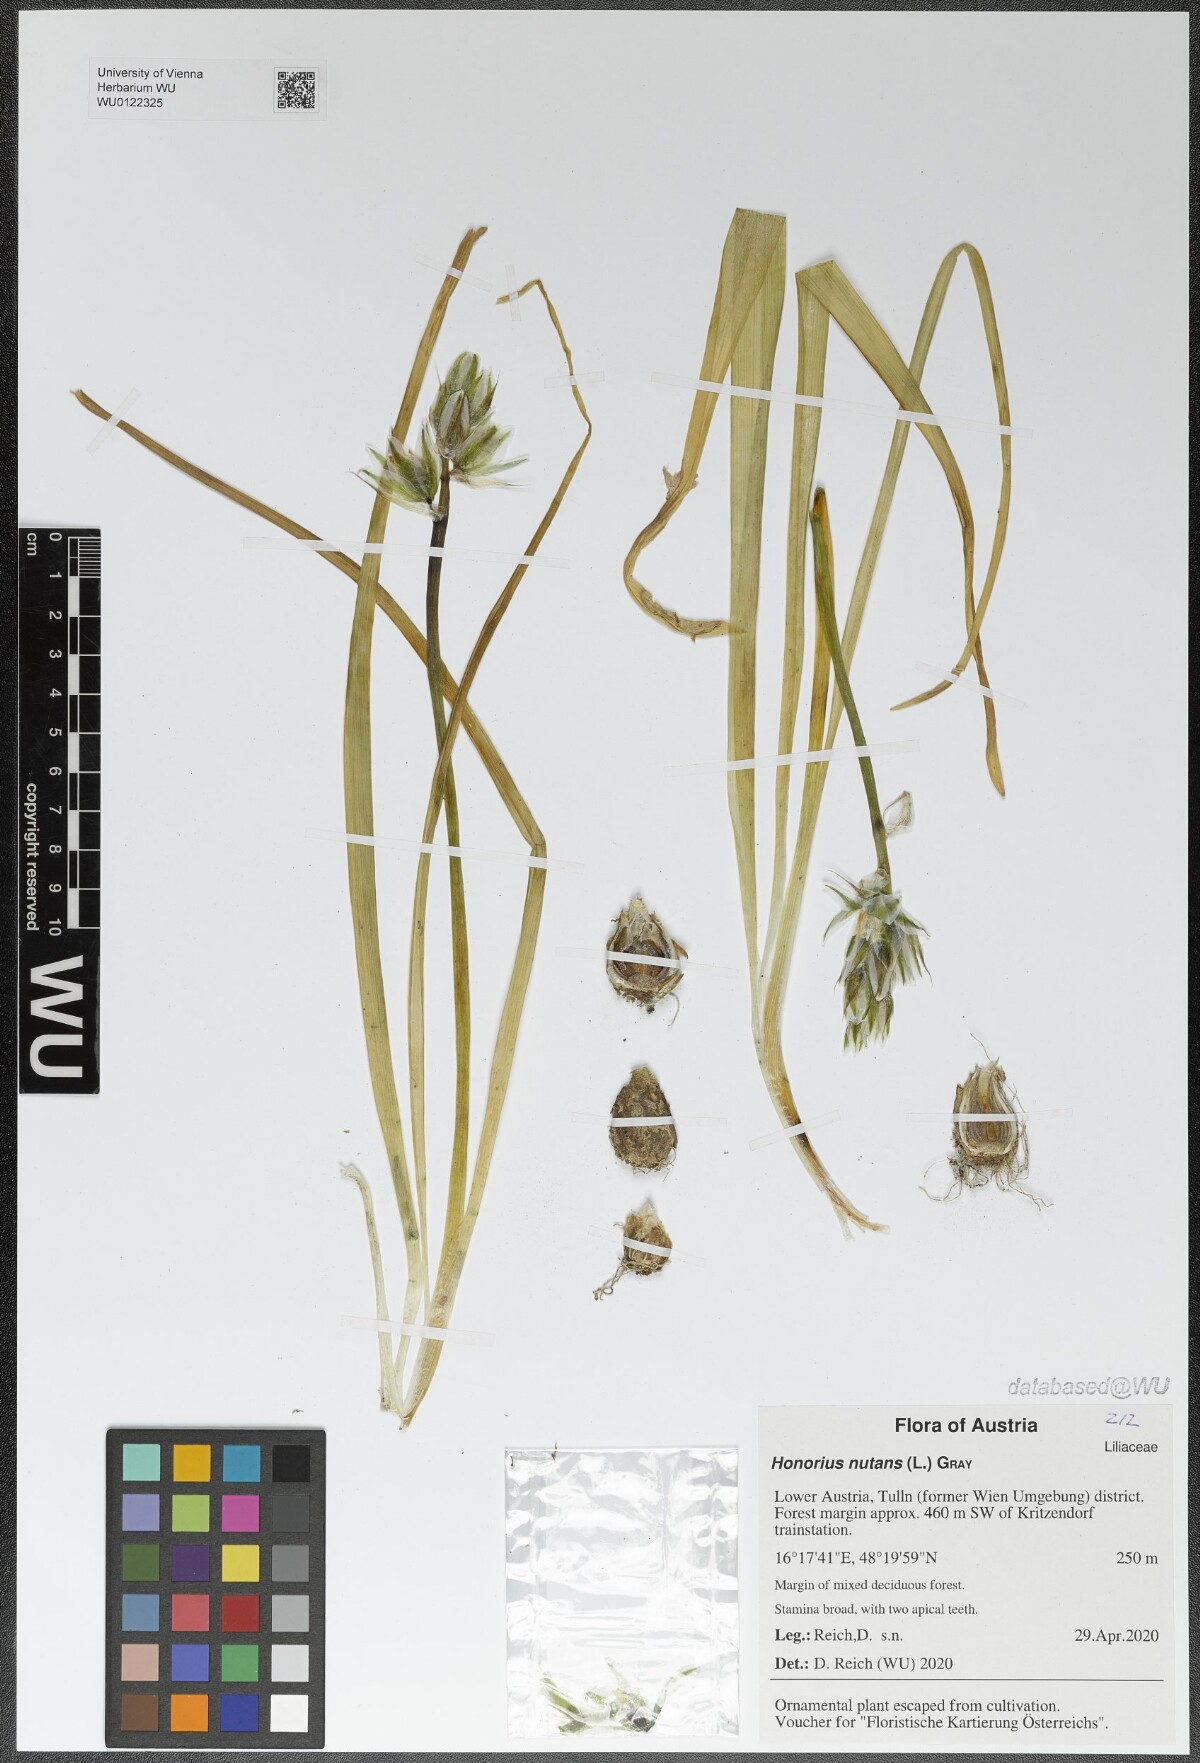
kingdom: Plantae
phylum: Tracheophyta
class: Liliopsida
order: Asparagales
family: Asparagaceae
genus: Ornithogalum
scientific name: Ornithogalum nutans
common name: Drooping star-of-bethlehem
